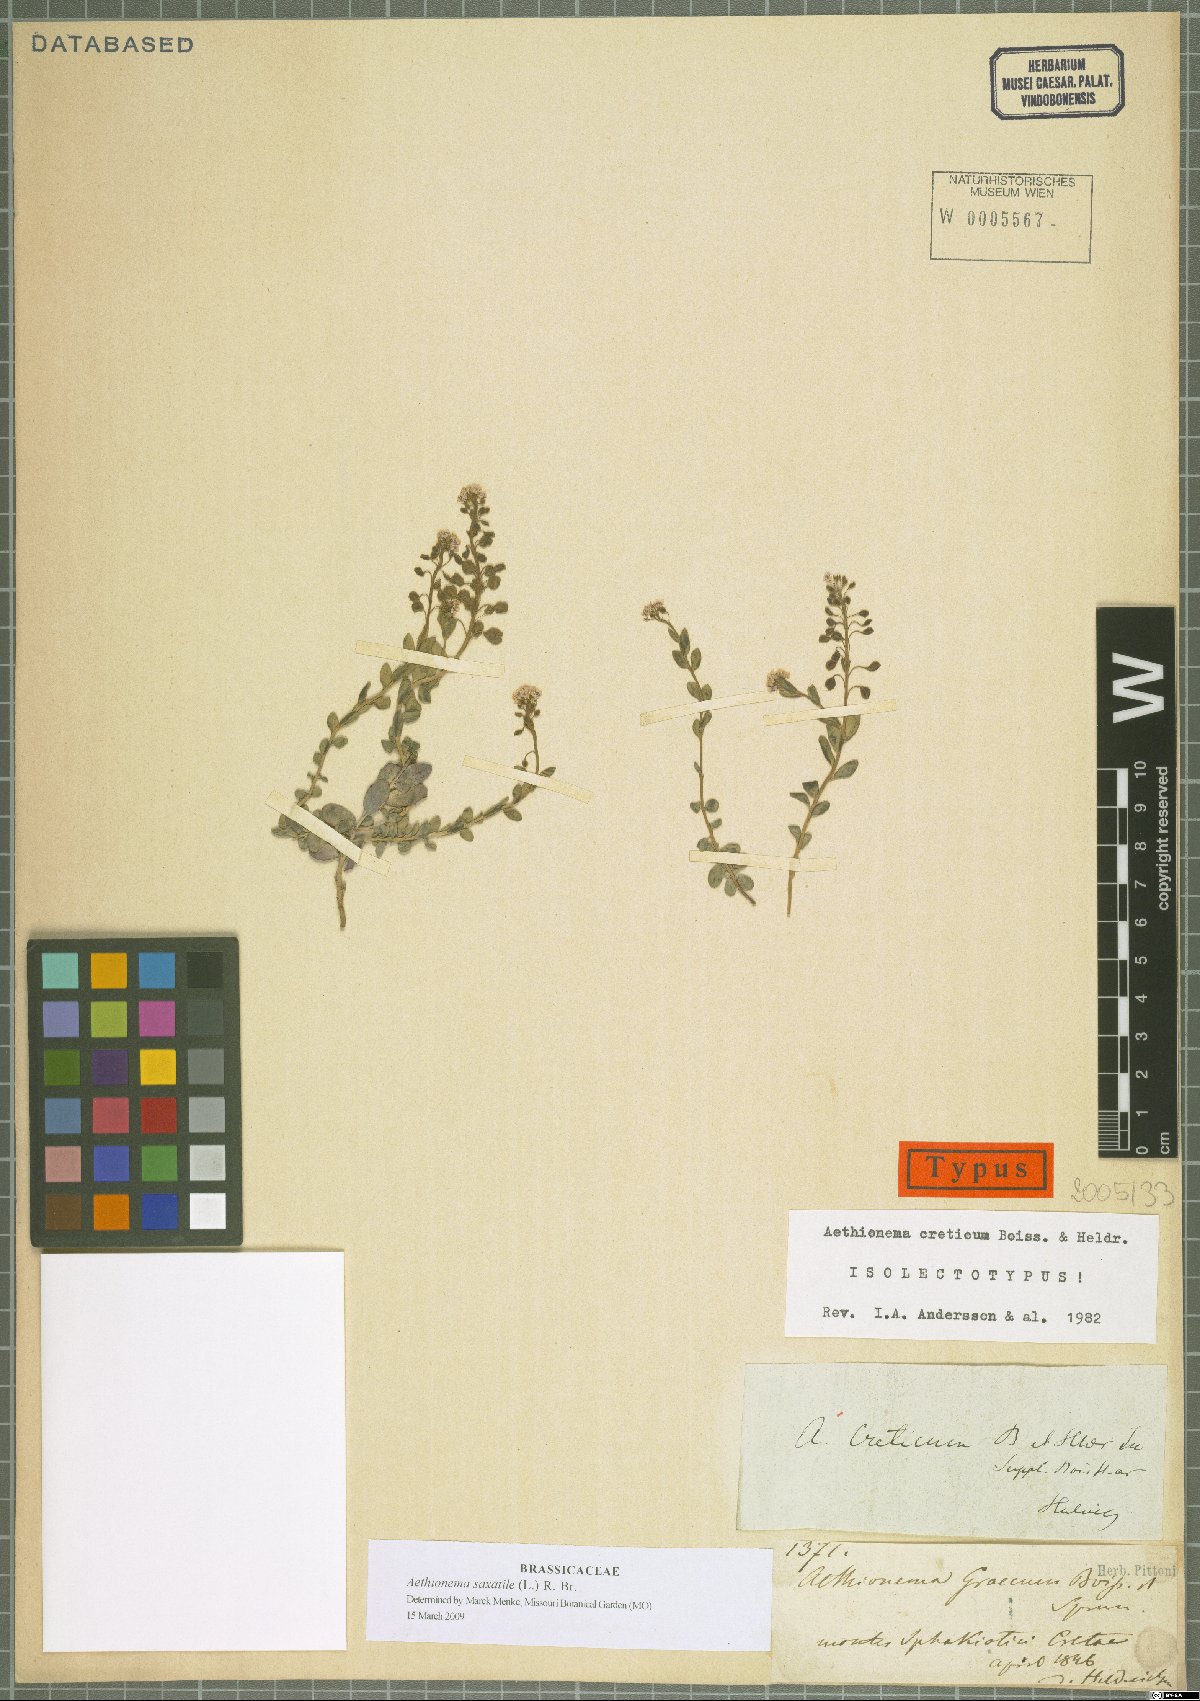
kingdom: Plantae
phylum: Tracheophyta
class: Magnoliopsida
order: Brassicales
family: Brassicaceae
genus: Aethionema
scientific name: Aethionema saxatile
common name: Burnt candytuft
